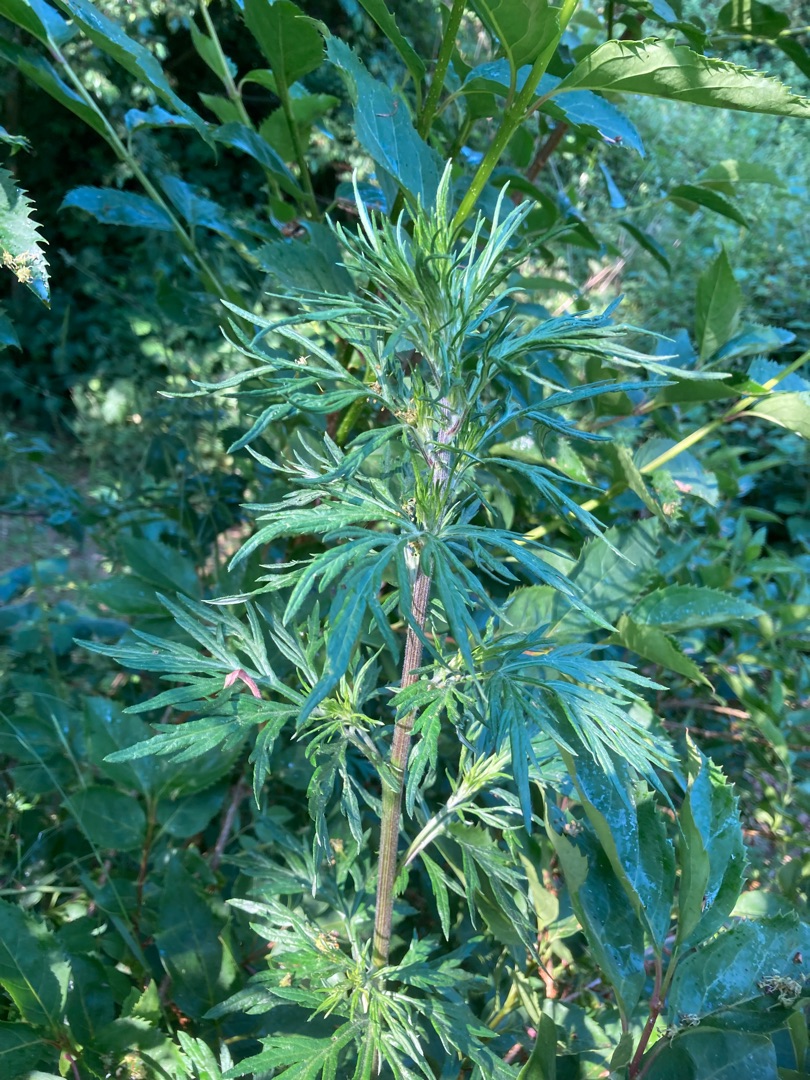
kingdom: Plantae
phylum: Tracheophyta
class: Magnoliopsida
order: Asterales
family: Asteraceae
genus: Artemisia
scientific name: Artemisia vulgaris
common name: Grå-bynke
